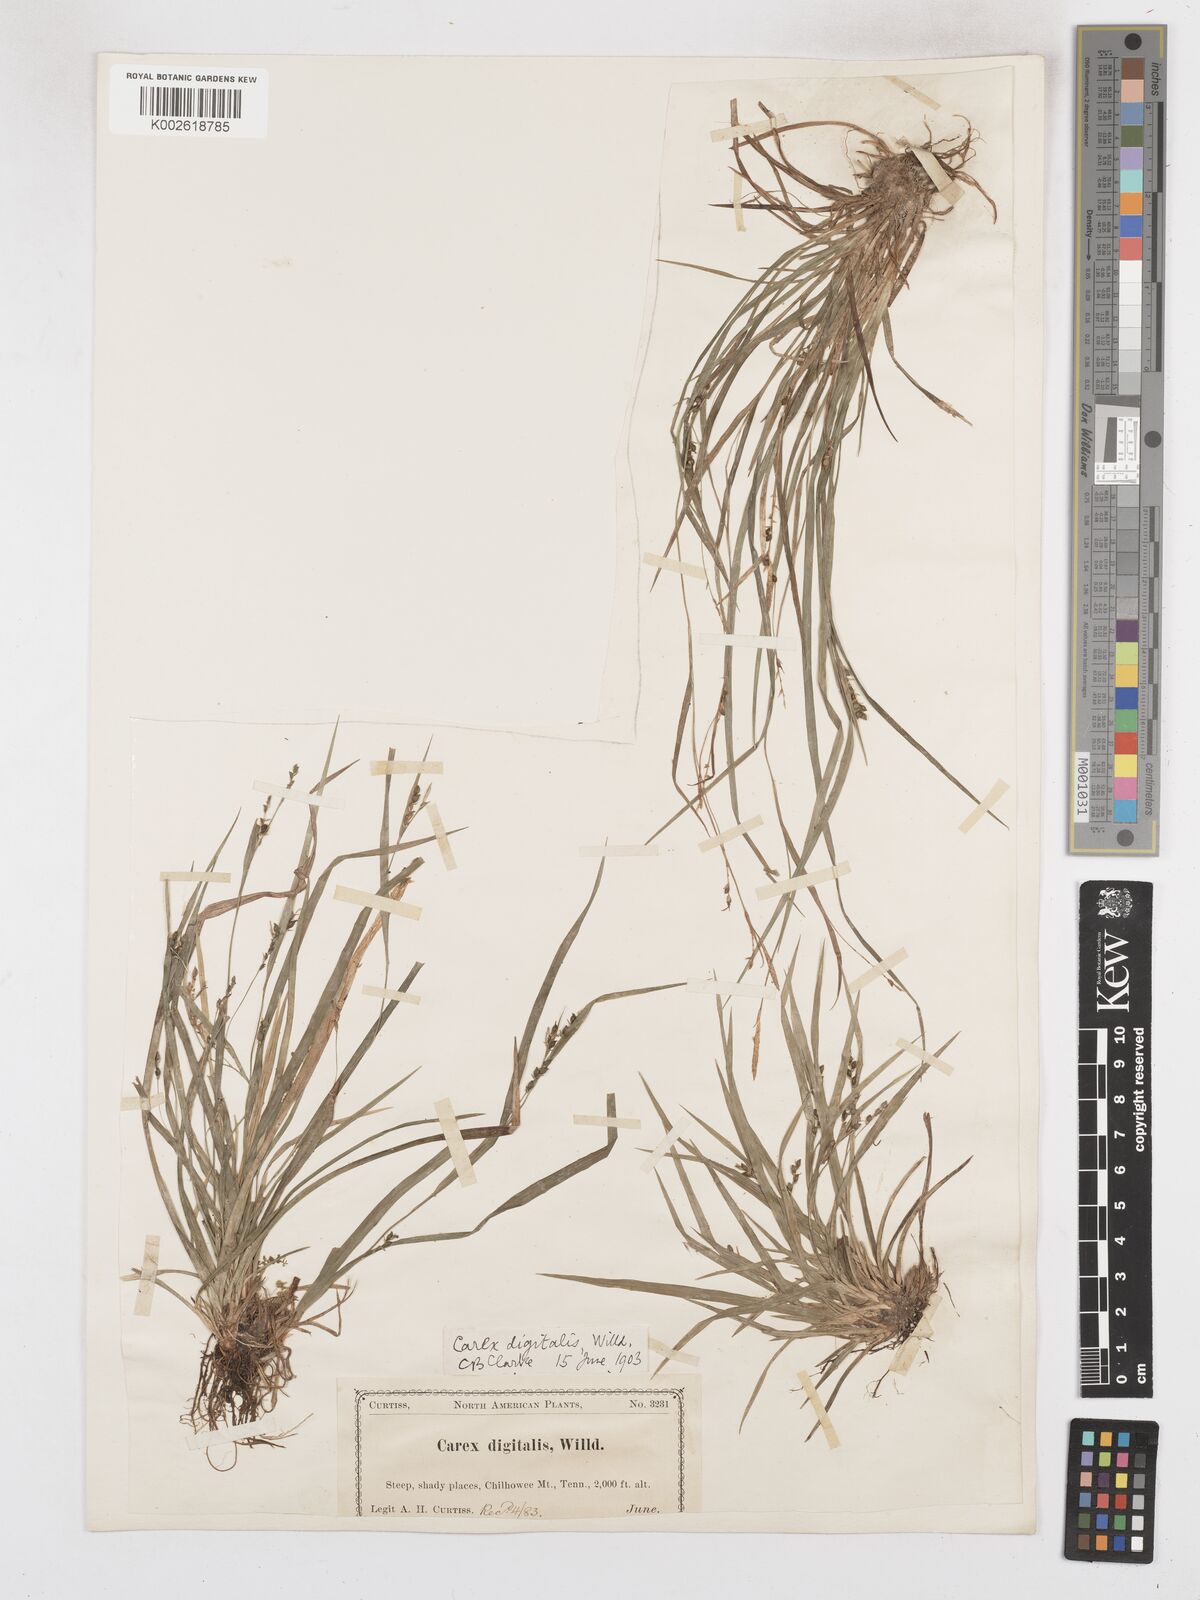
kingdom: Plantae
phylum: Tracheophyta
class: Liliopsida
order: Poales
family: Cyperaceae
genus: Carex
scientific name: Carex digitalis
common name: Slender wood sedge
